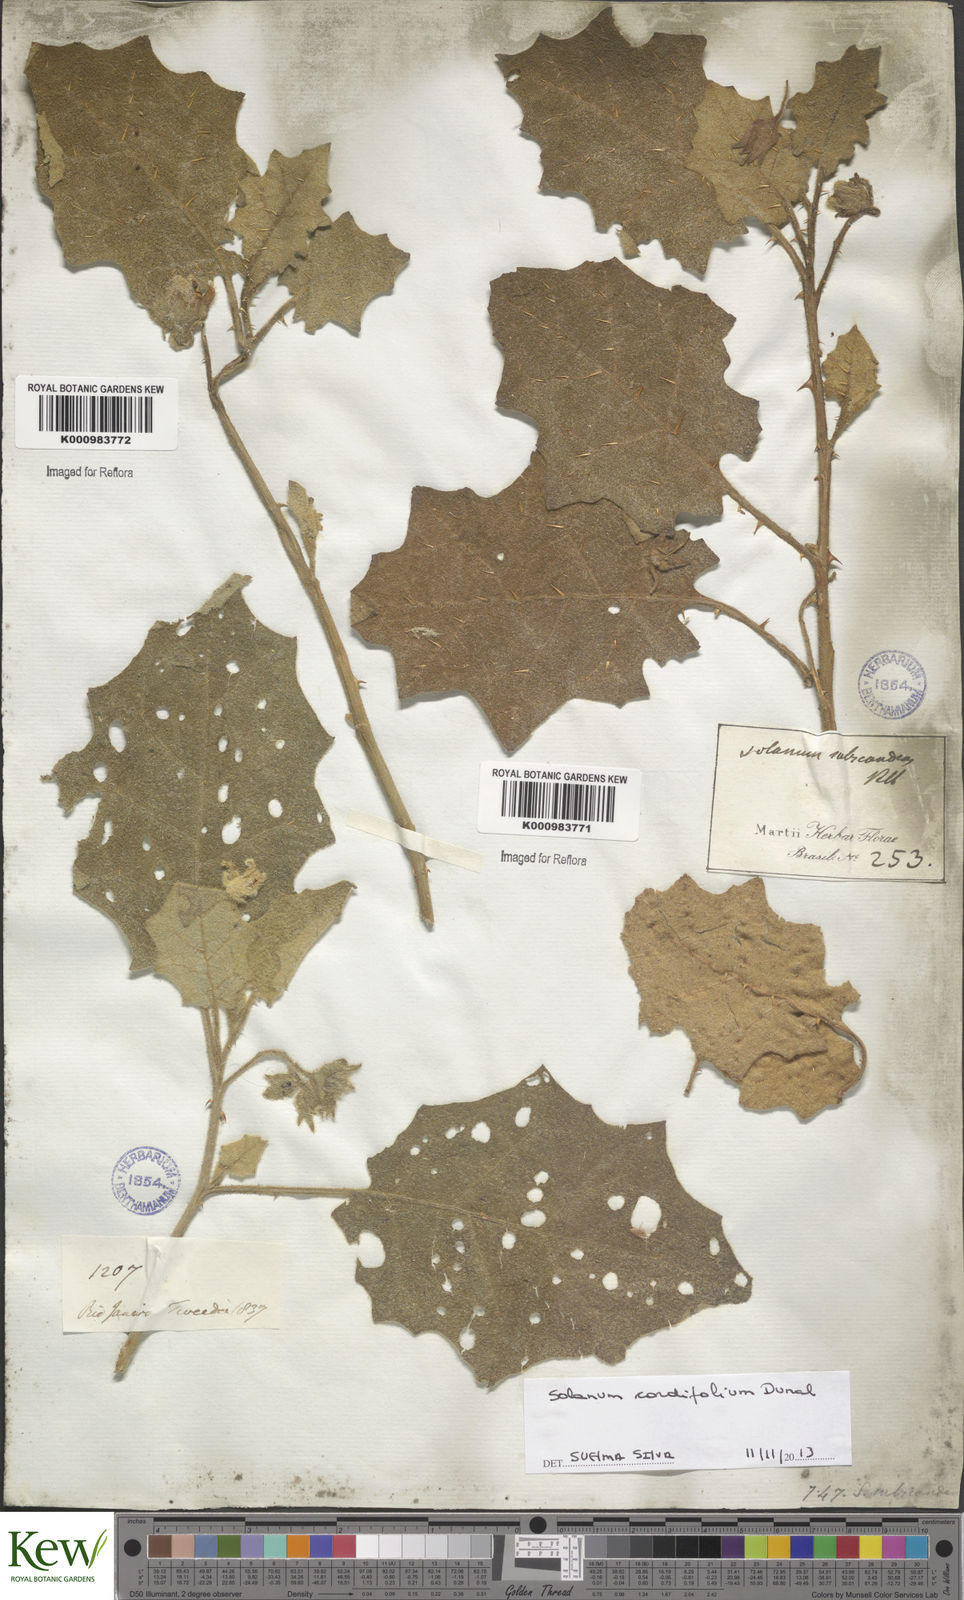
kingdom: Plantae
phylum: Tracheophyta
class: Magnoliopsida
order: Solanales
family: Solanaceae
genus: Solanum
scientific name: Solanum cordifolium
